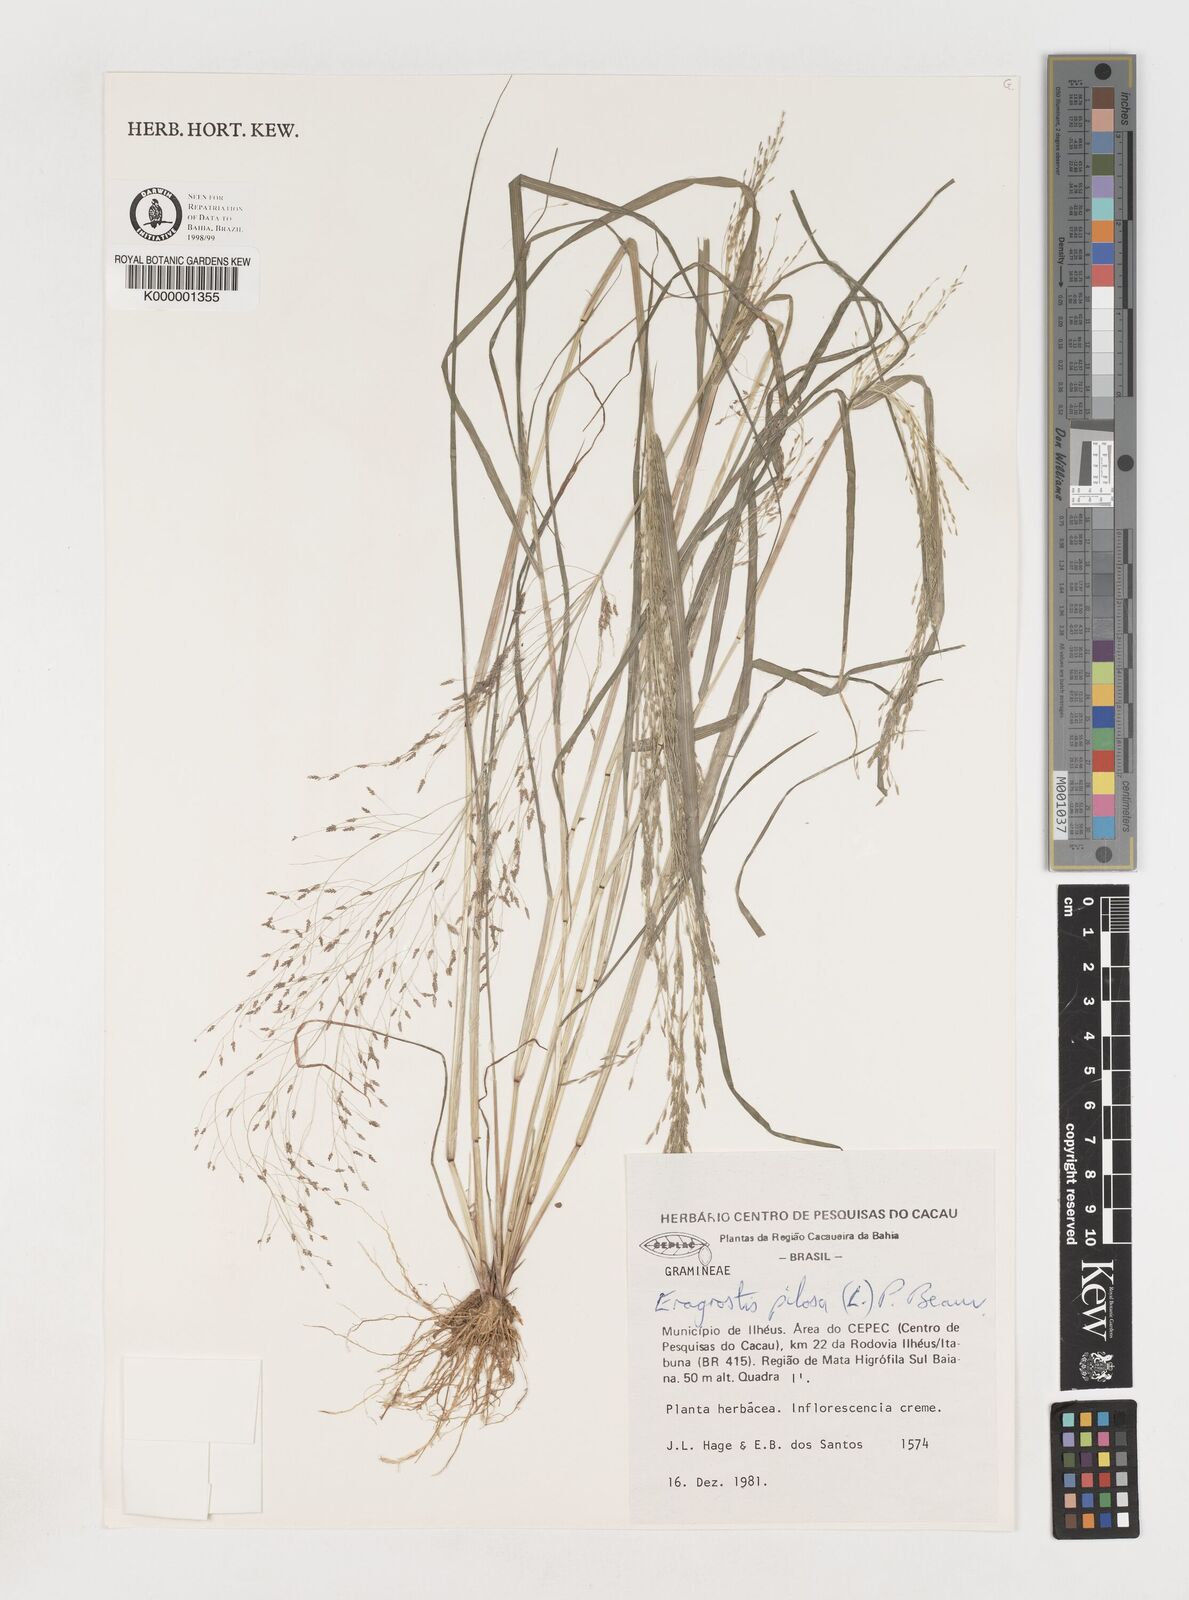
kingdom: Plantae
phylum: Tracheophyta
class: Liliopsida
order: Poales
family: Poaceae
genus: Eragrostis
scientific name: Eragrostis pilosa
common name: Indian lovegrass
